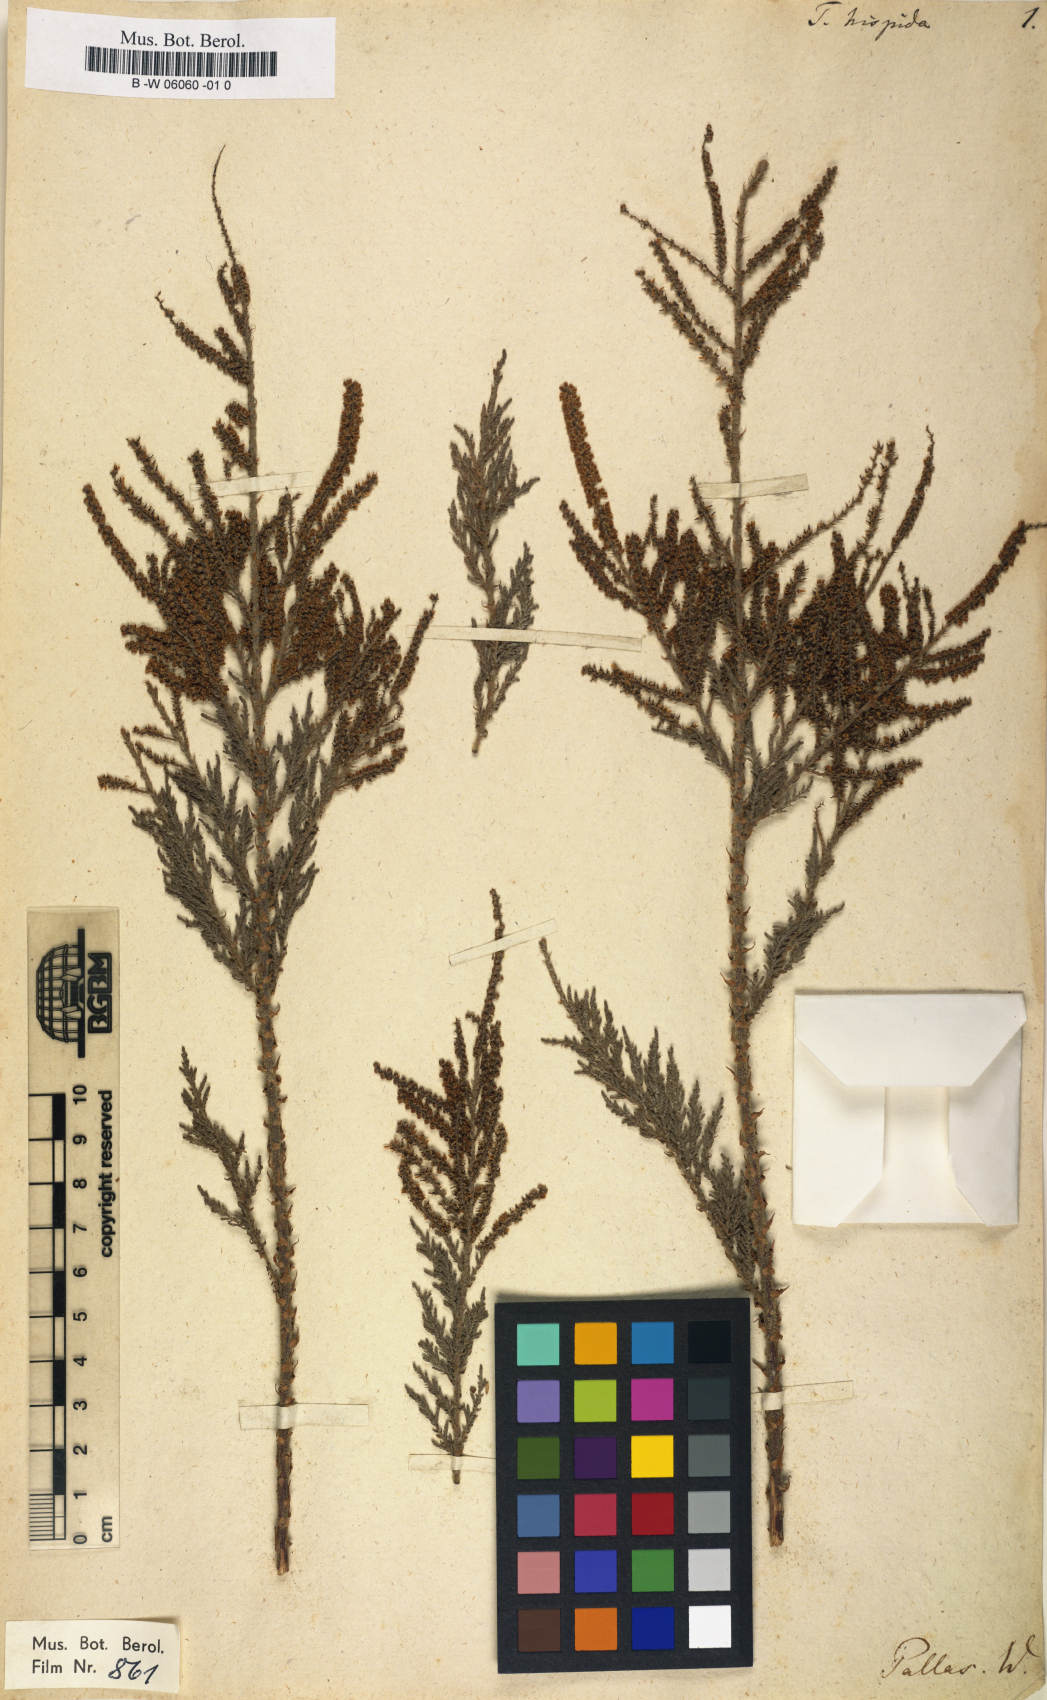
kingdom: Plantae
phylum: Tracheophyta
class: Magnoliopsida
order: Caryophyllales
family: Tamaricaceae
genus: Tamarix
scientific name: Tamarix hispida
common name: Kashgar tamarisk
